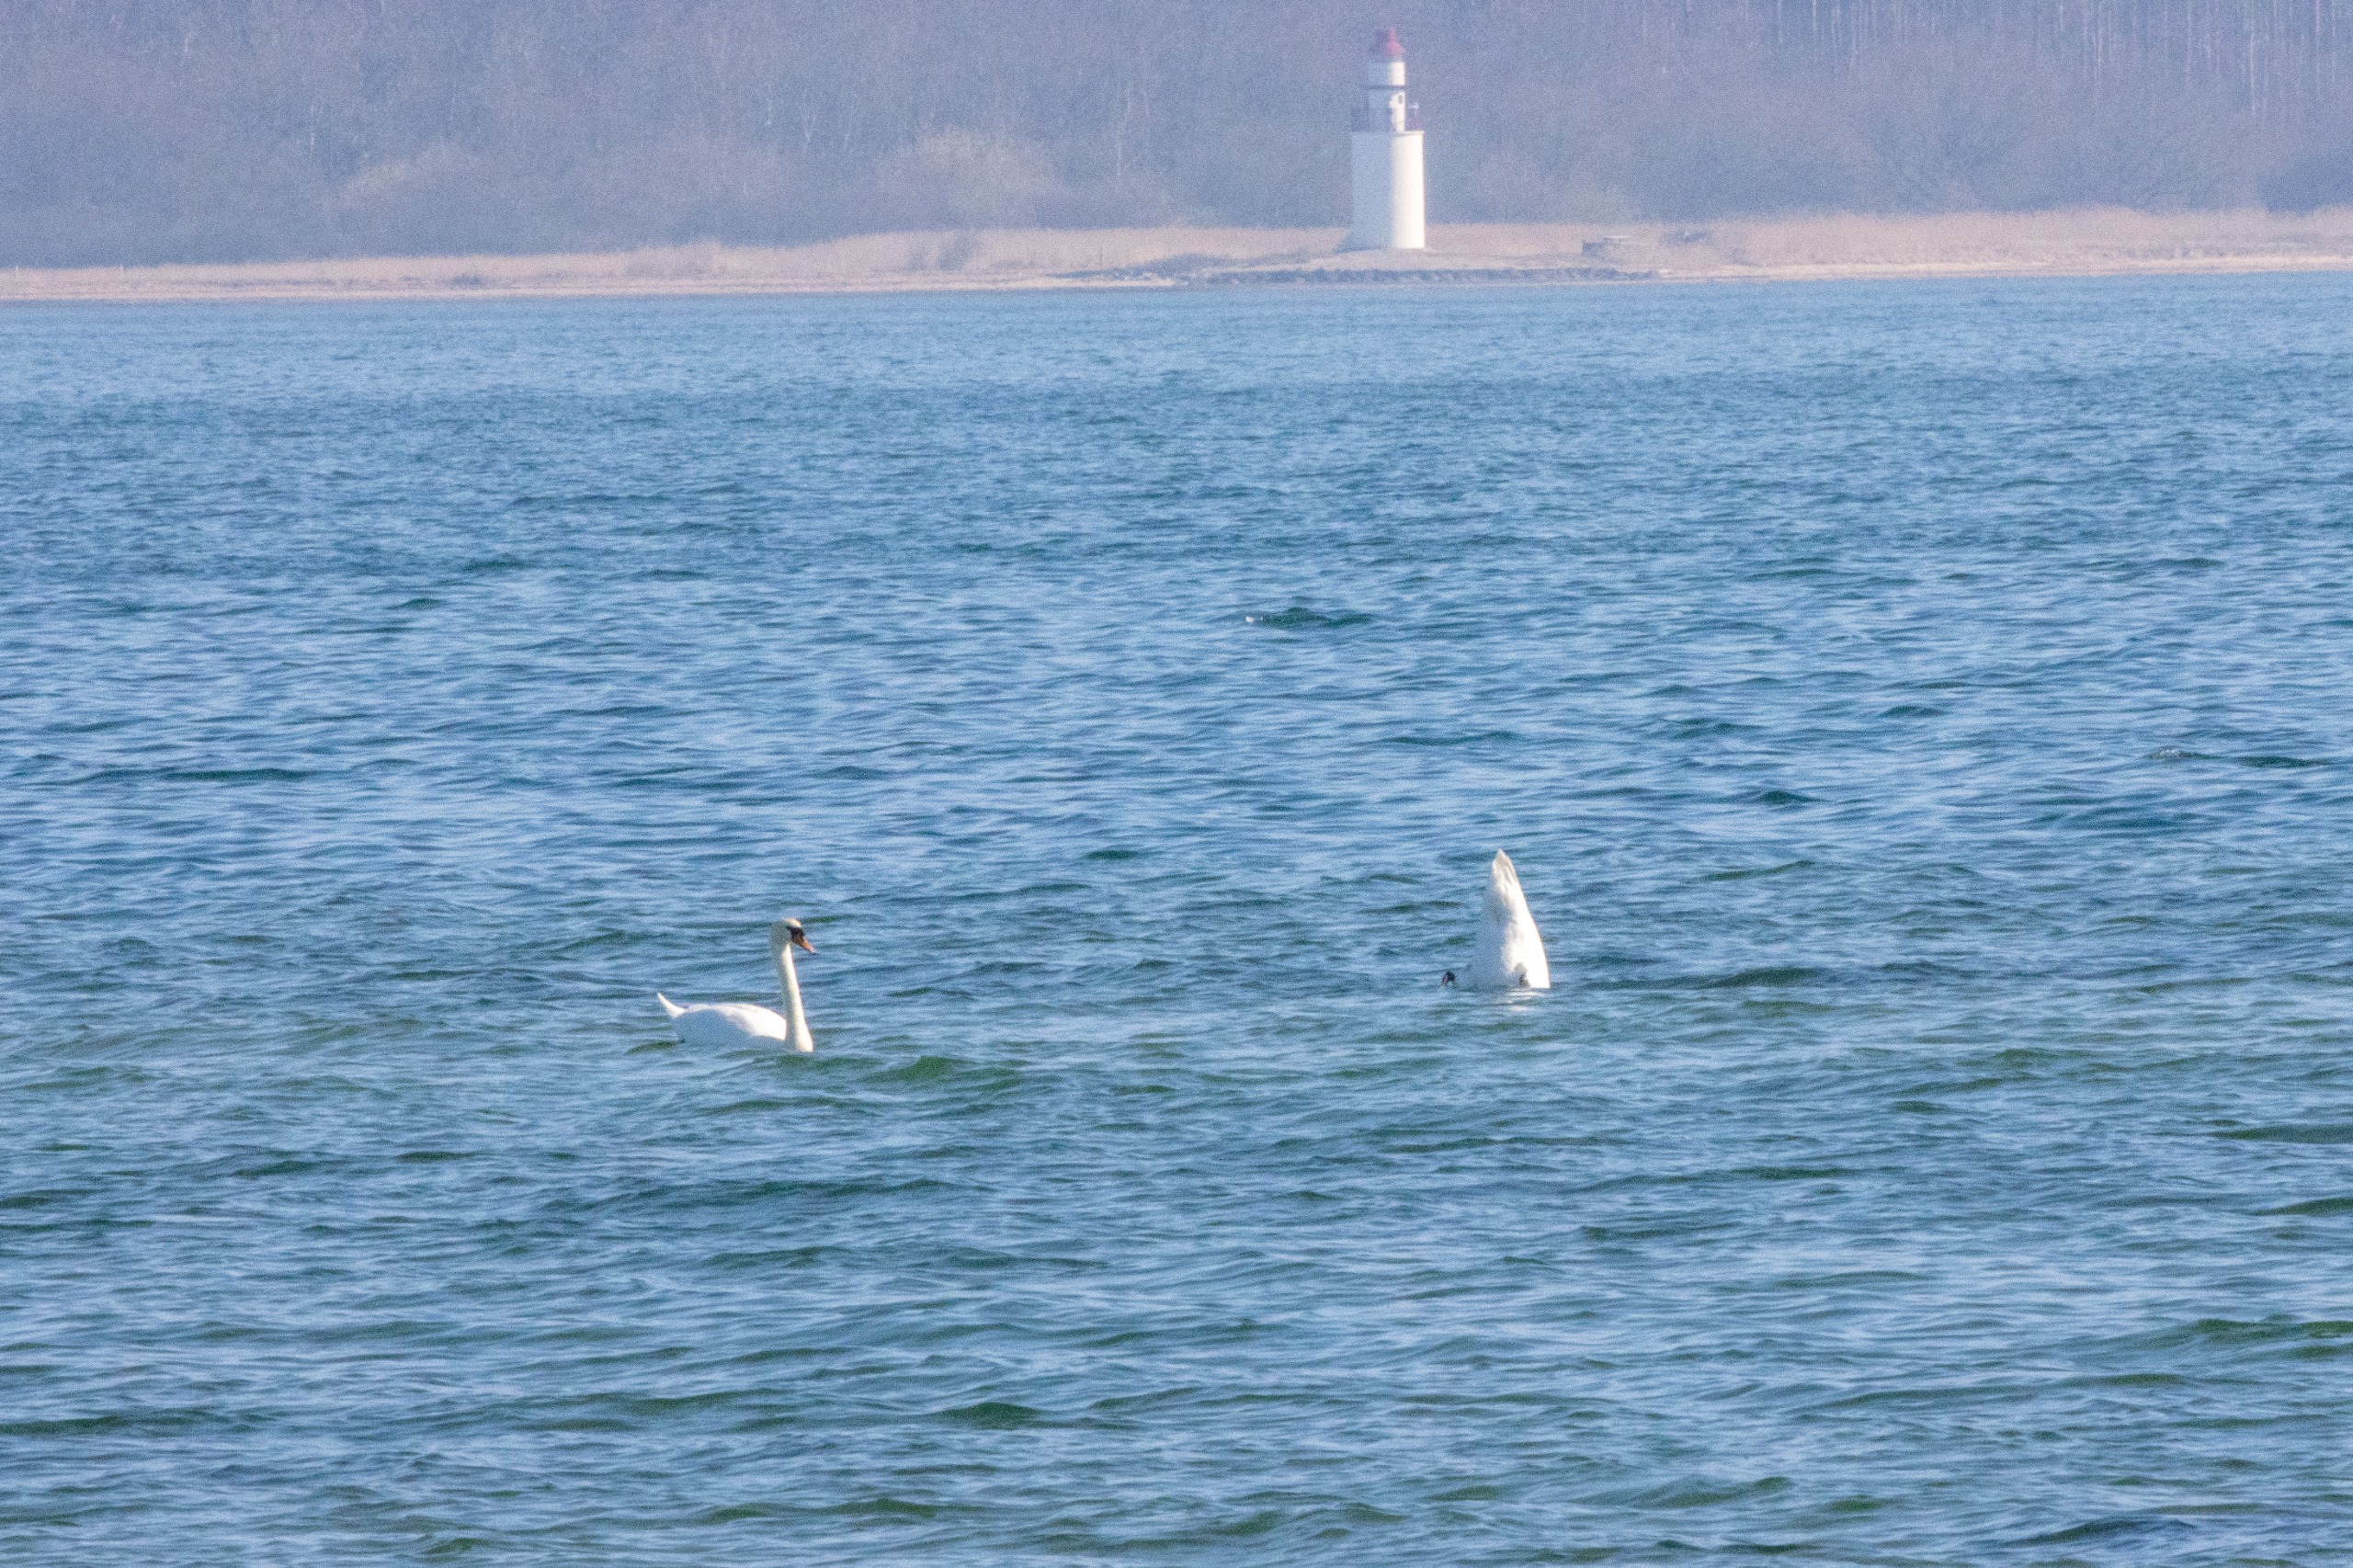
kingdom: Animalia
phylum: Chordata
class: Aves
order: Anseriformes
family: Anatidae
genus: Cygnus
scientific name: Cygnus olor
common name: Knopsvane
